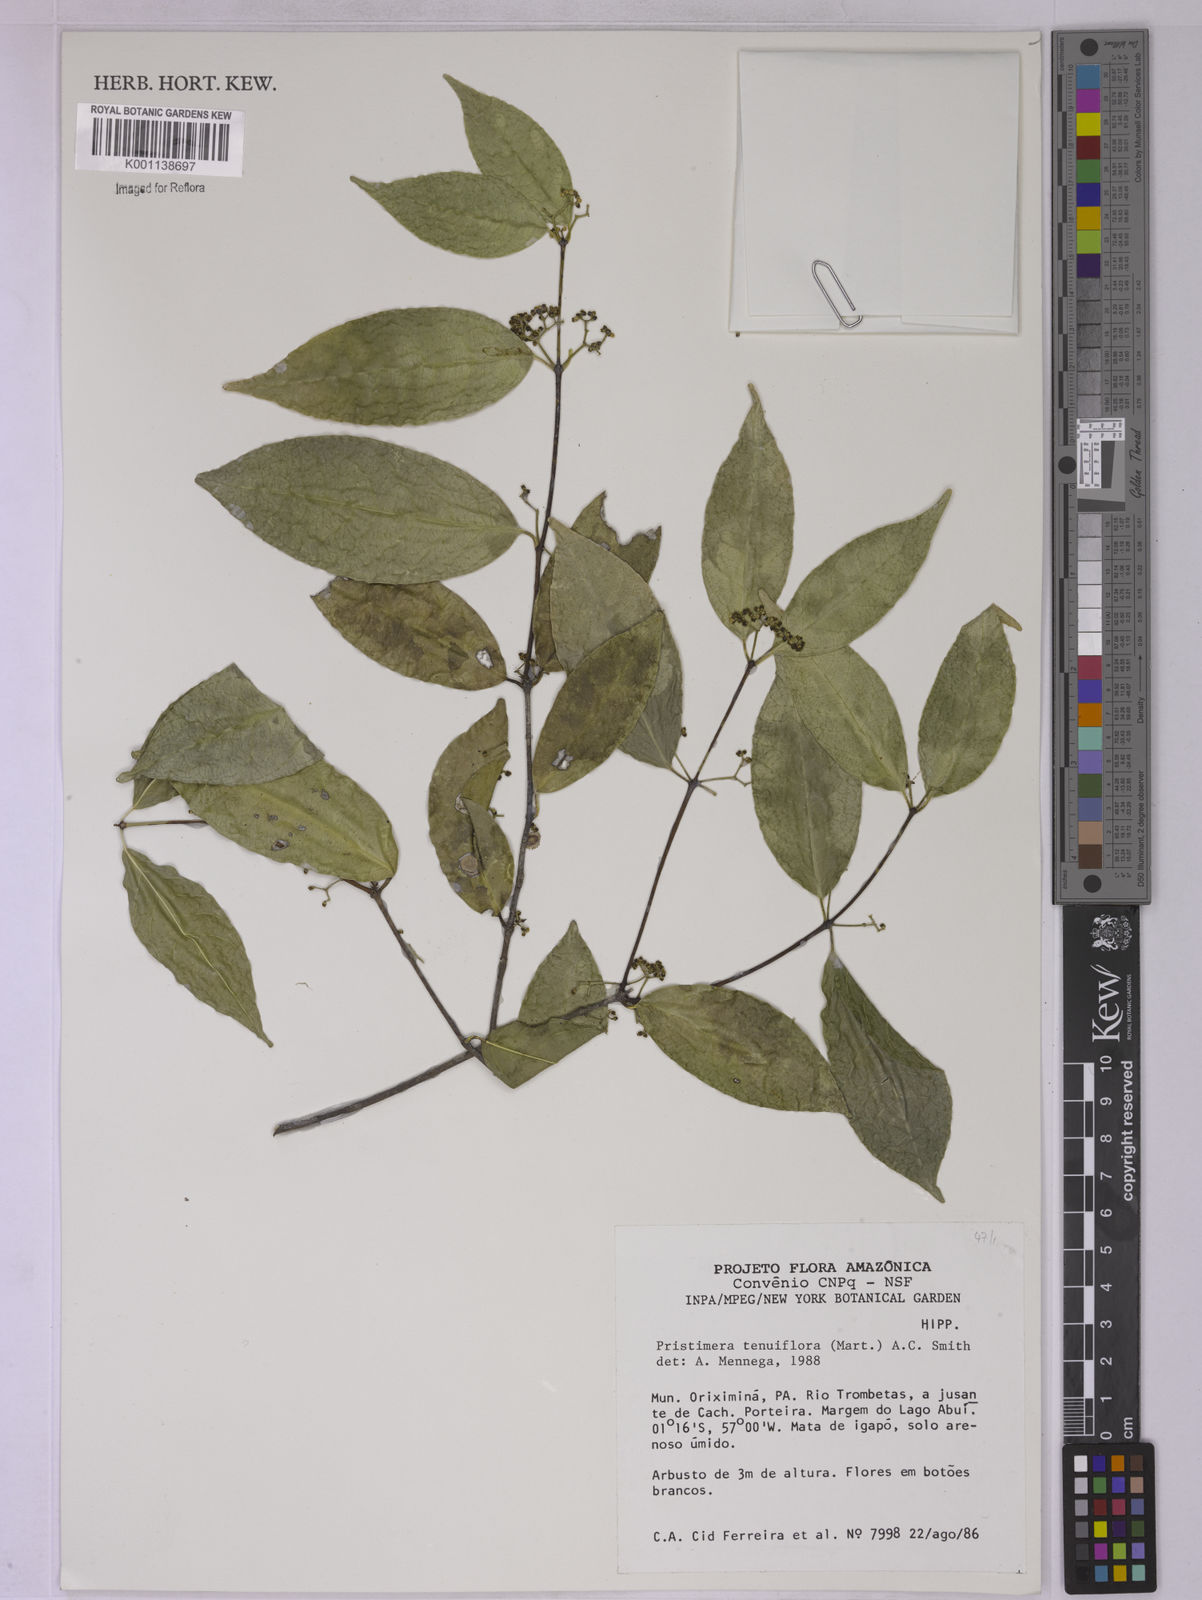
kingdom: Plantae
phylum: Tracheophyta
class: Magnoliopsida
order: Celastrales
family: Celastraceae
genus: Pristimera
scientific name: Pristimera tenuiflora
